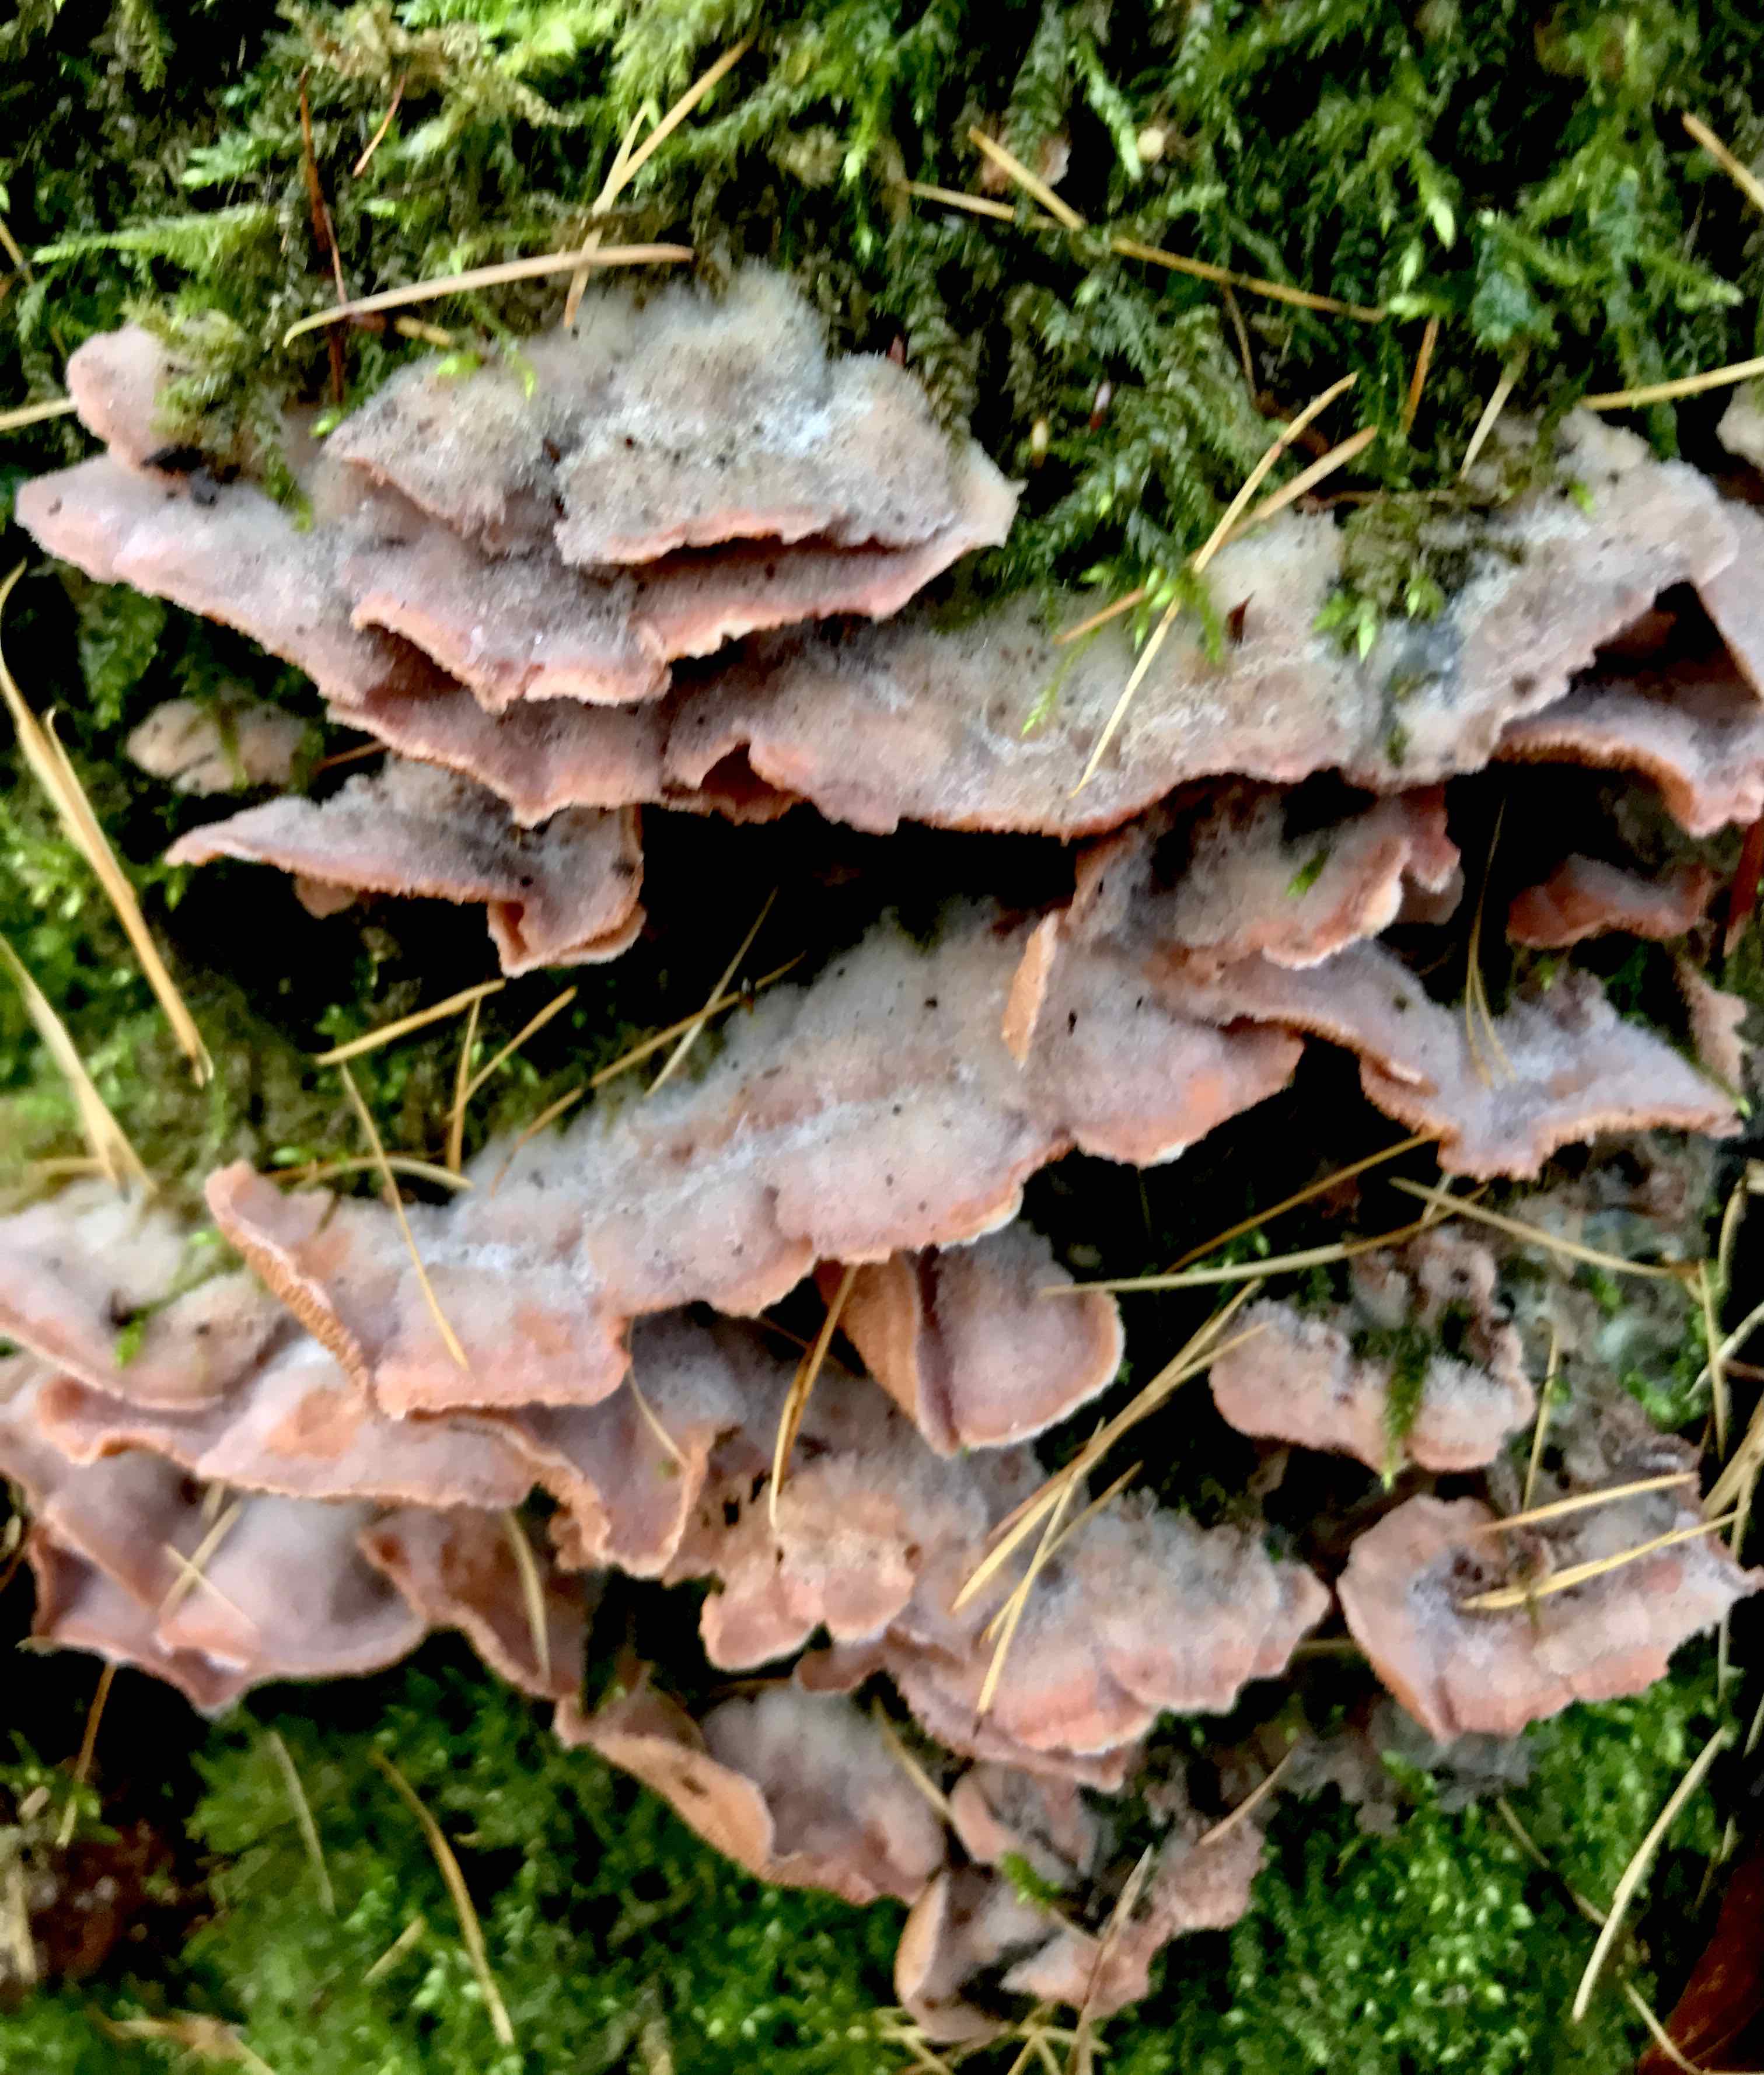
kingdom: Fungi
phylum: Basidiomycota
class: Agaricomycetes
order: Polyporales
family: Meruliaceae
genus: Phlebia
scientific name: Phlebia tremellosa
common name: bævrende åresvamp
